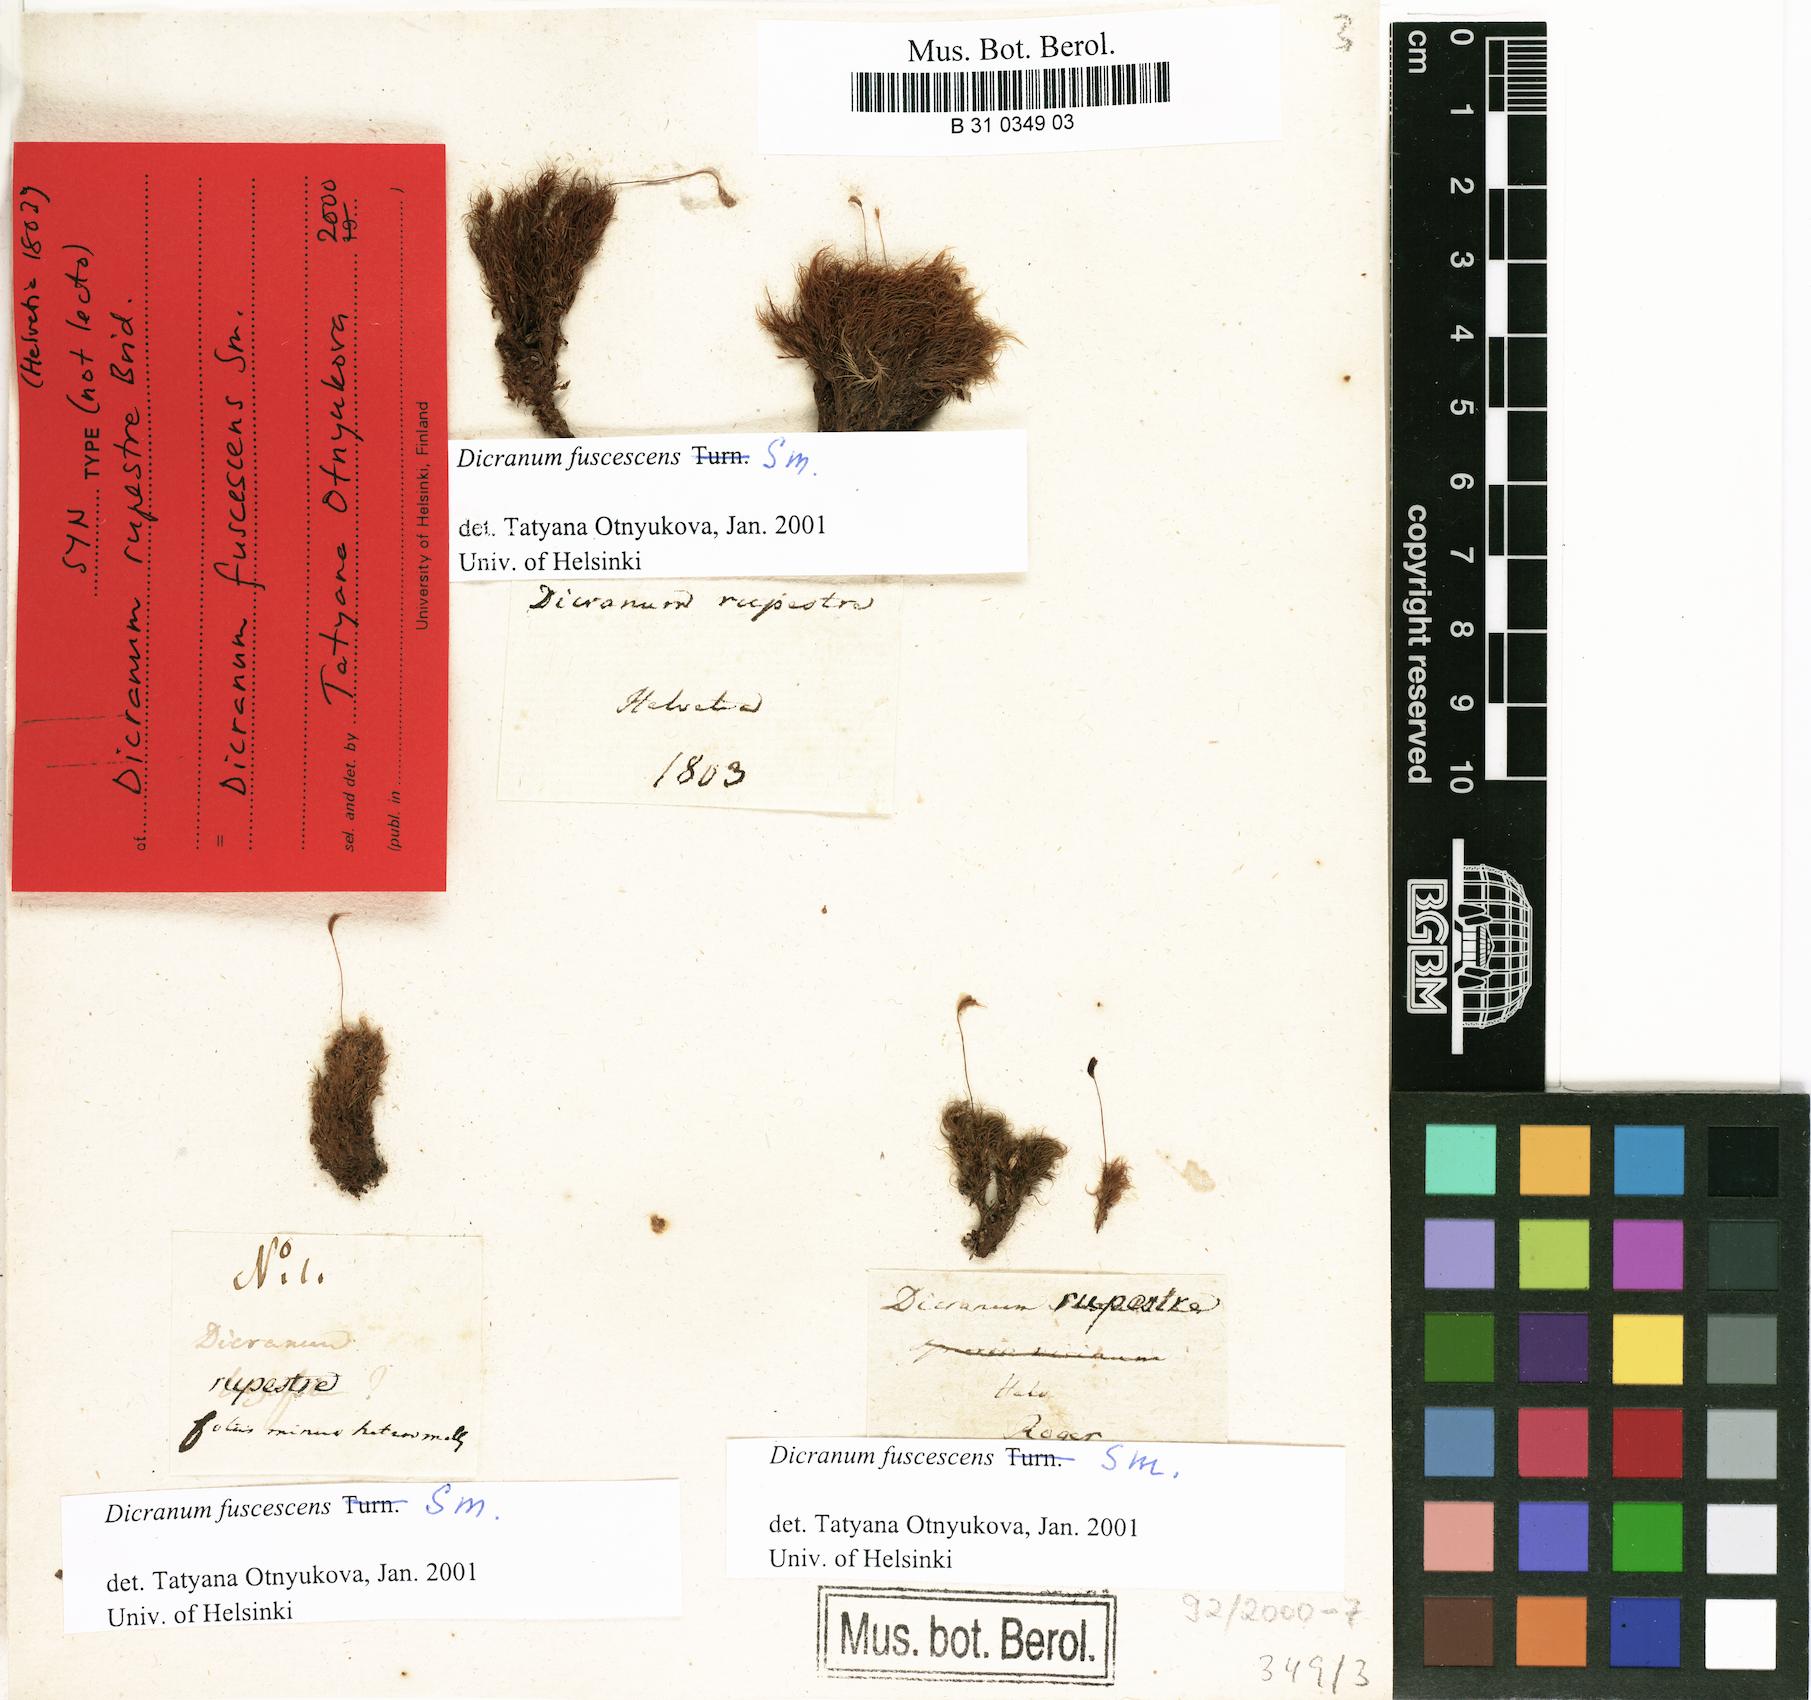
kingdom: Plantae
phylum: Bryophyta
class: Bryopsida
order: Dicranales
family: Dicranaceae
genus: Dicranum
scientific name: Dicranum fuscescens
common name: Curly heron's-bill moss
